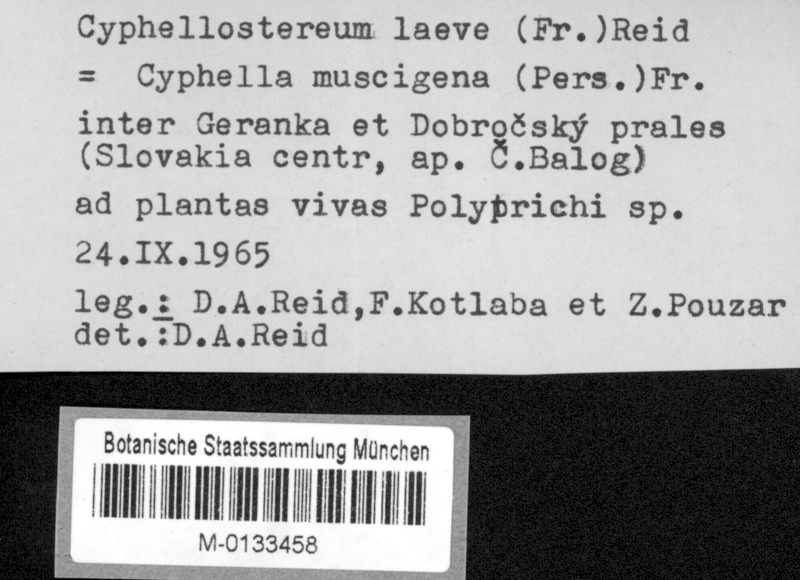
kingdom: Plantae
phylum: Bryophyta
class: Polytrichopsida
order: Polytrichales
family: Polytrichaceae
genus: Polytrichum
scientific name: Polytrichum
